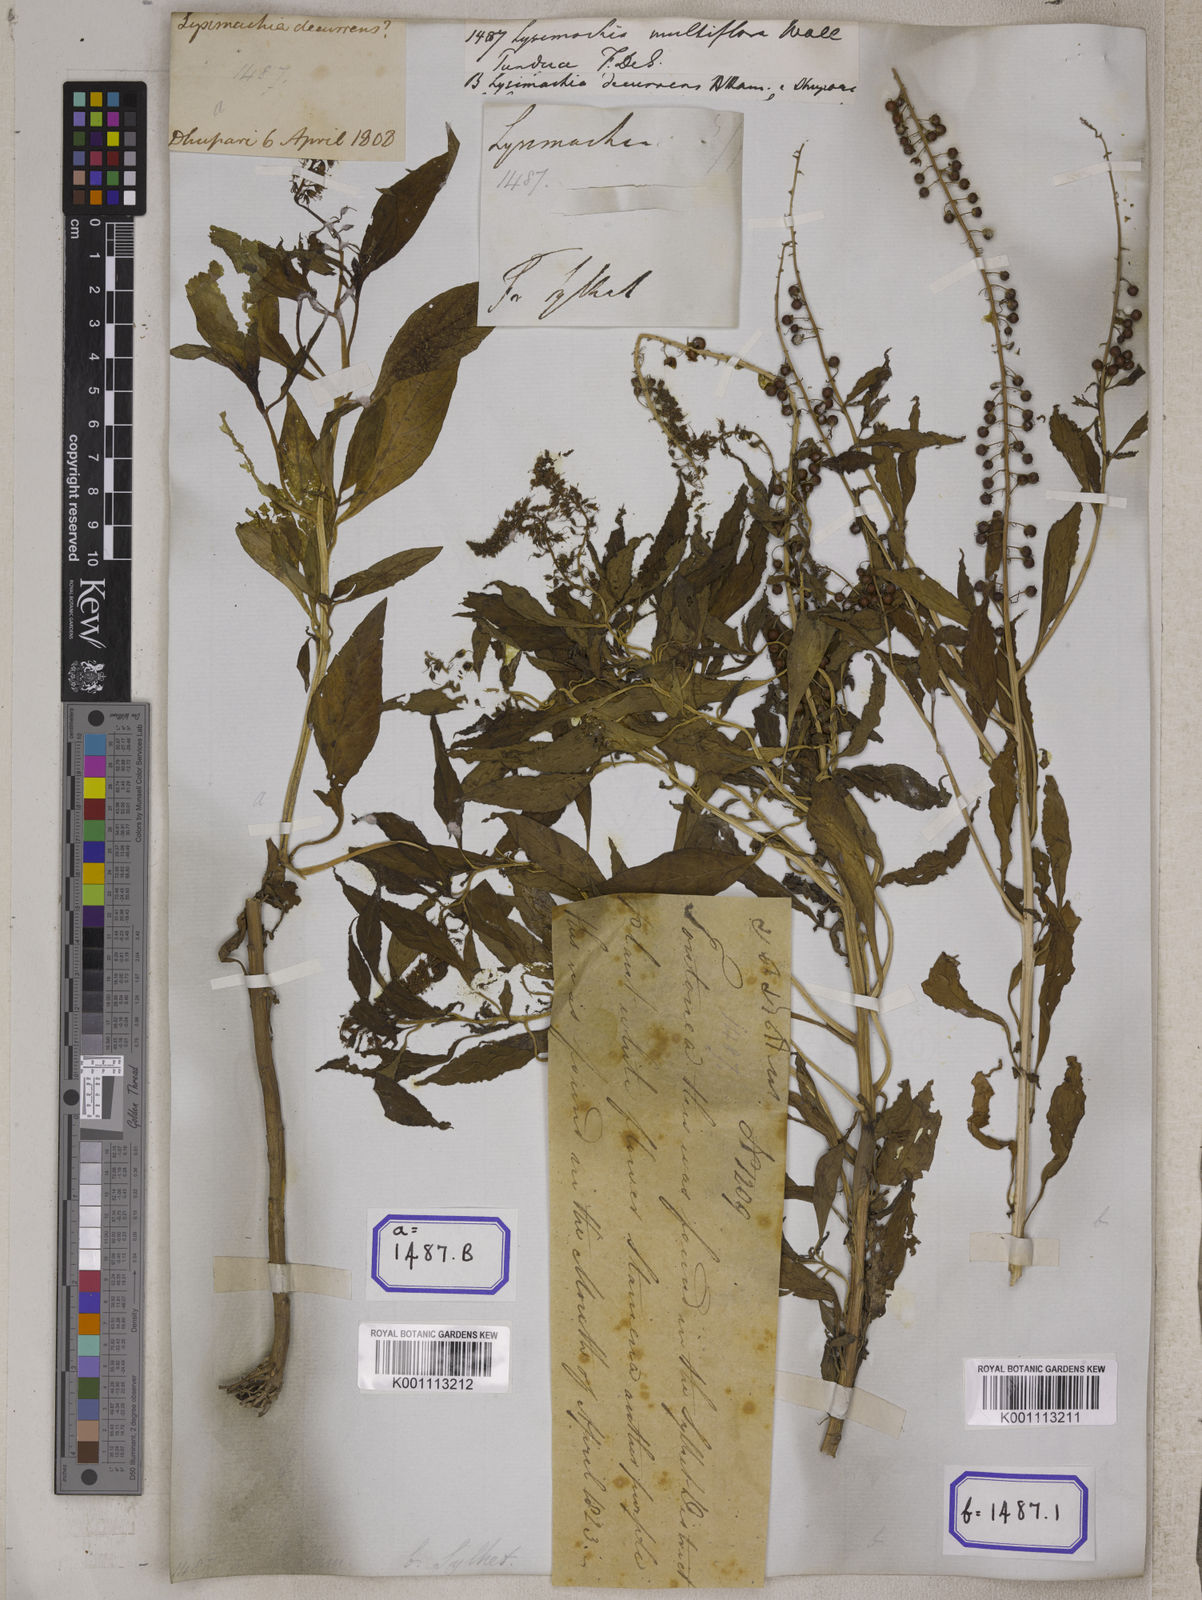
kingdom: Plantae
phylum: Tracheophyta
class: Magnoliopsida
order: Ericales
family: Primulaceae
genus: Lysimachia
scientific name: Lysimachia decurrens
